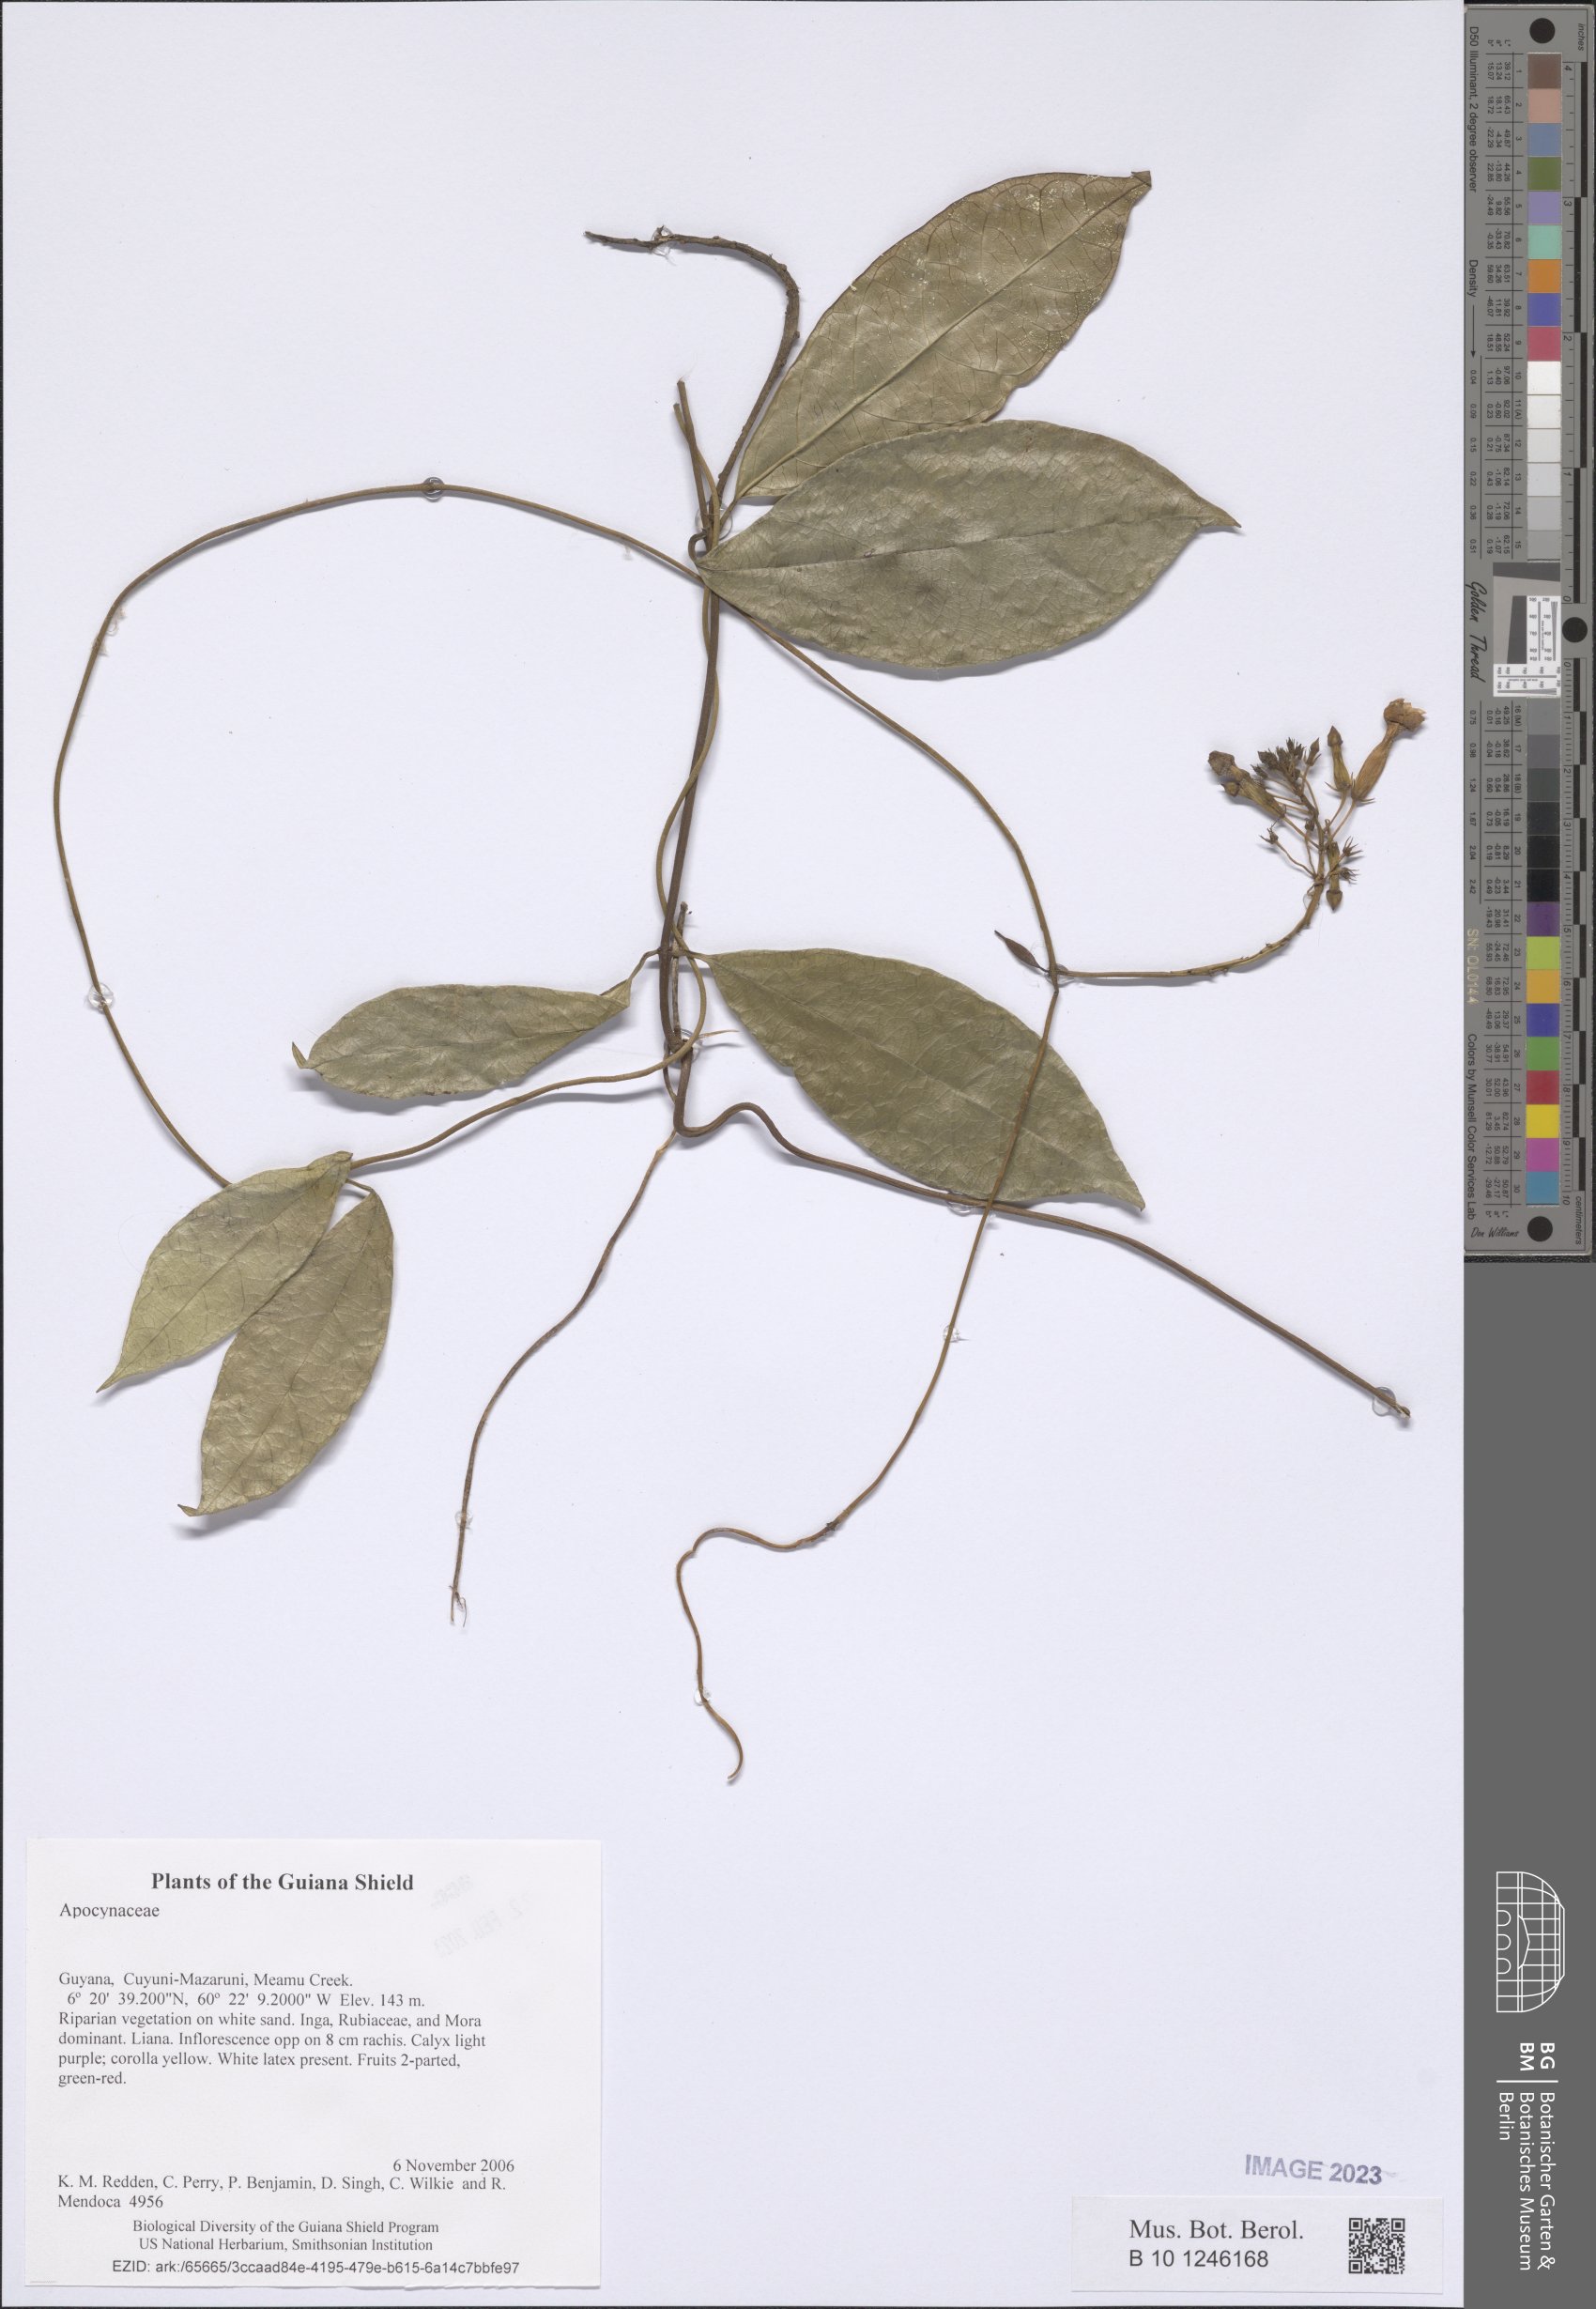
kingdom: Plantae
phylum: Tracheophyta
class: Magnoliopsida
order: Gentianales
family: Apocynaceae
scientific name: Apocynaceae
